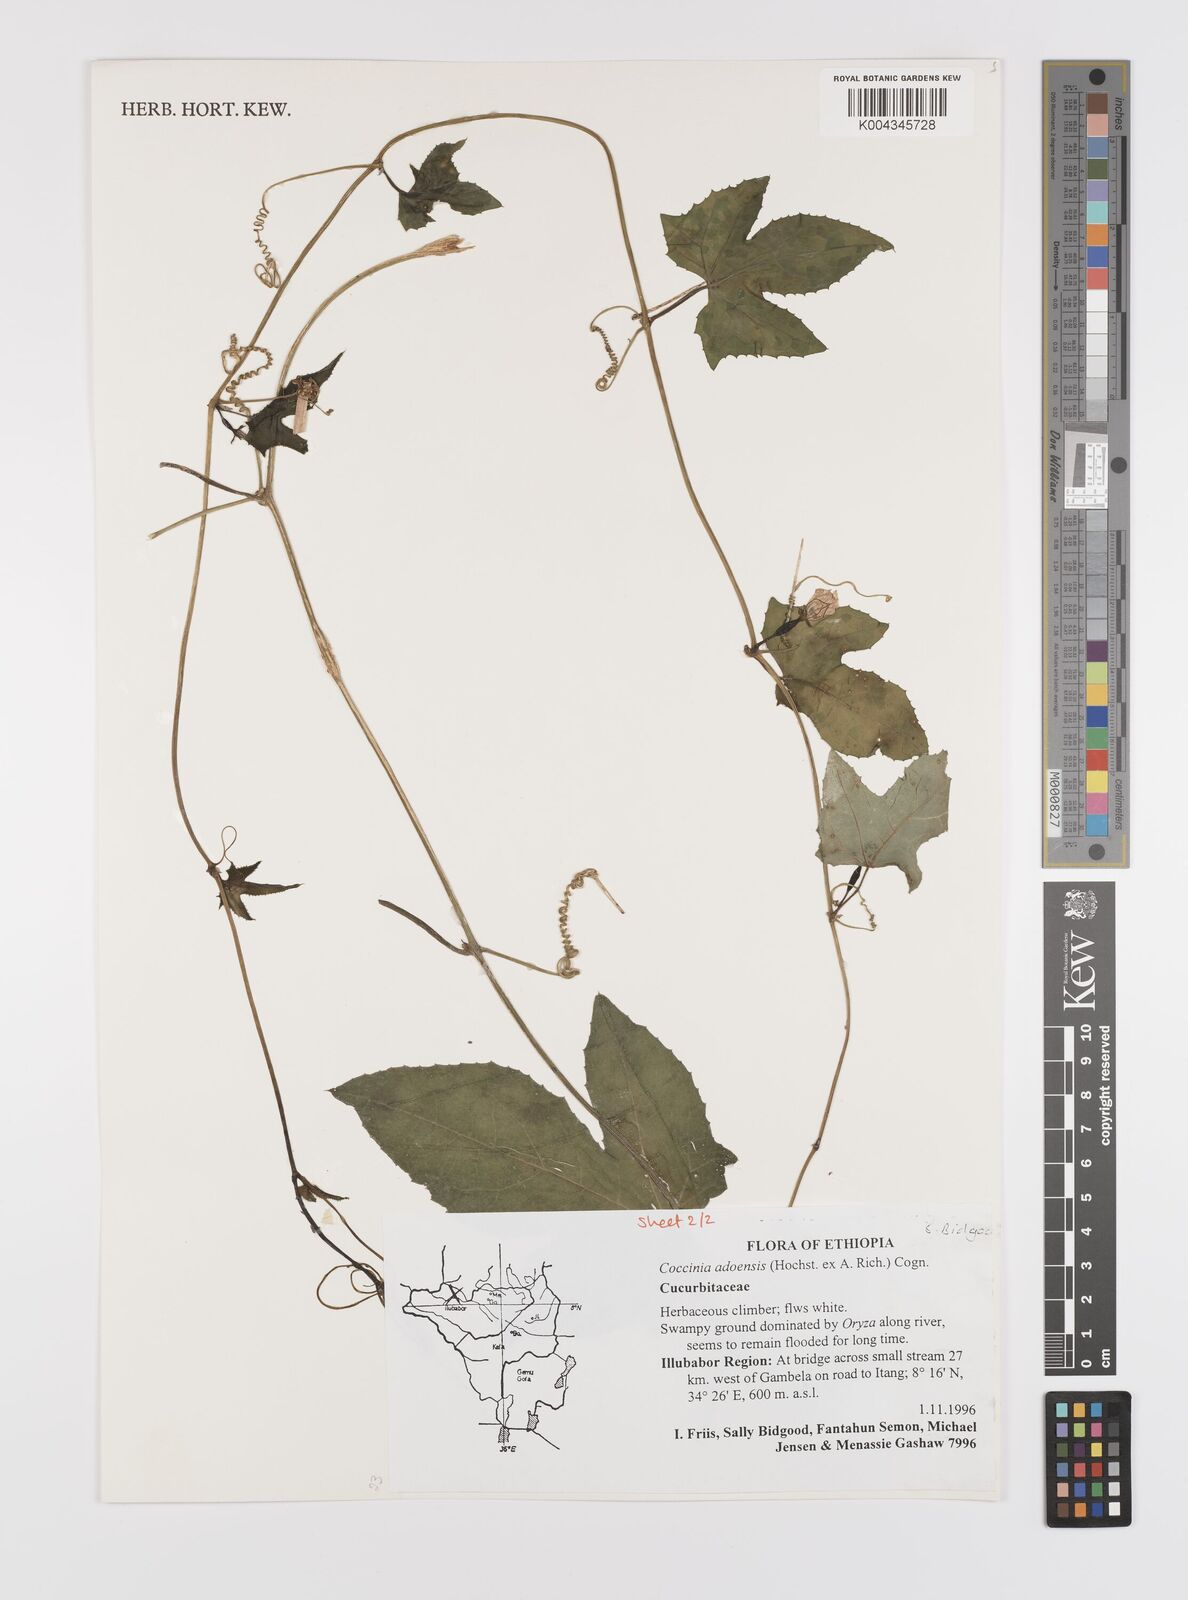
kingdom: Plantae
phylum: Tracheophyta
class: Magnoliopsida
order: Cucurbitales
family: Cucurbitaceae
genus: Coccinia
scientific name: Coccinia adoensis
